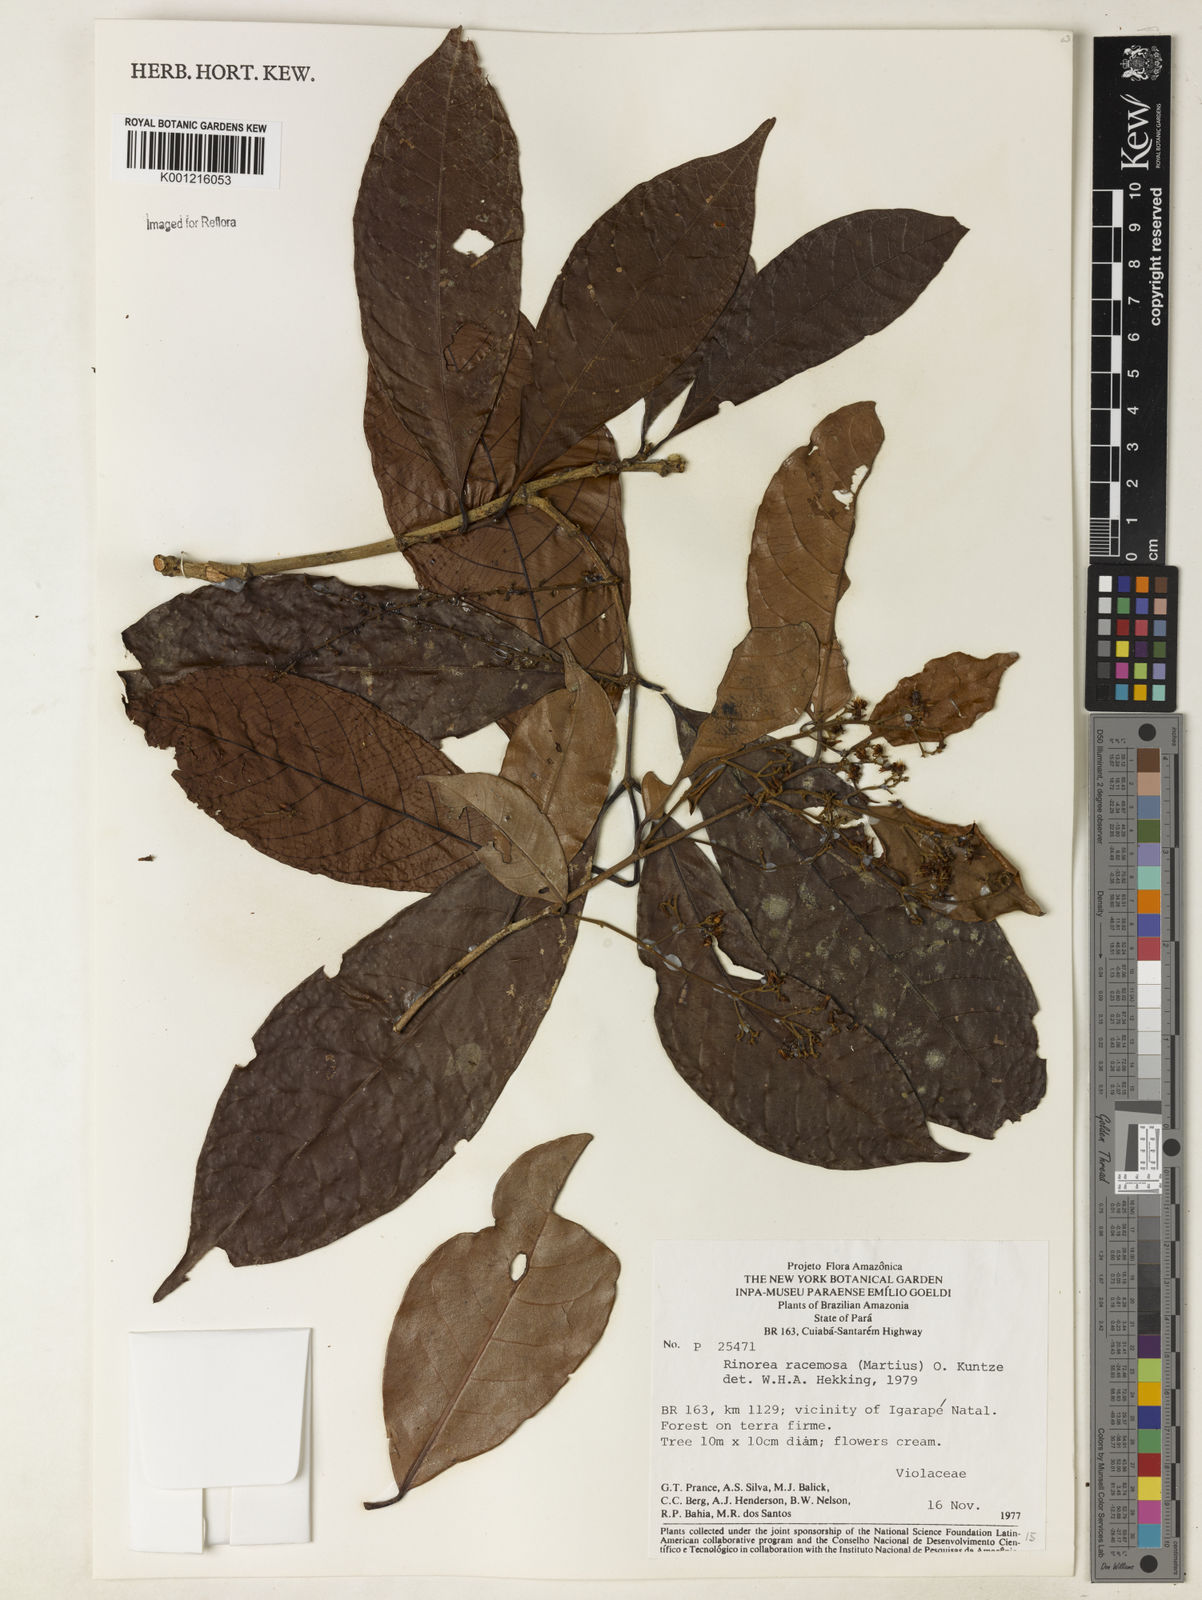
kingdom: Plantae
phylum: Tracheophyta
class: Magnoliopsida
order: Malpighiales
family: Violaceae
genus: Rinorea
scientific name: Rinorea racemosa
